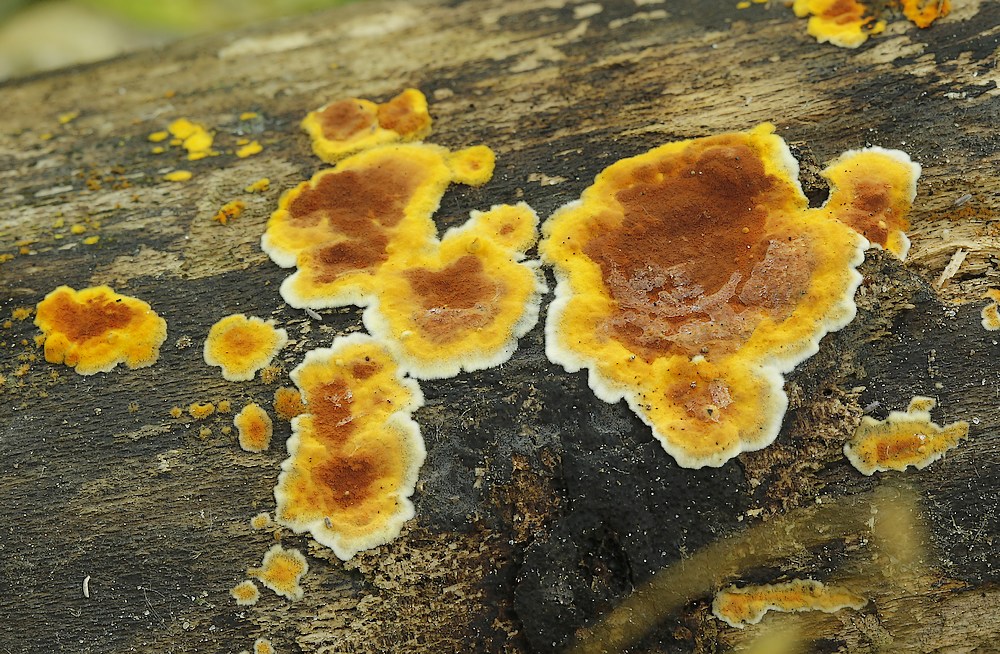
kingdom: Fungi
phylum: Basidiomycota
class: Agaricomycetes
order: Russulales
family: Stereaceae
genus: Stereum
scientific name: Stereum hirsutum
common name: håret lædersvamp
